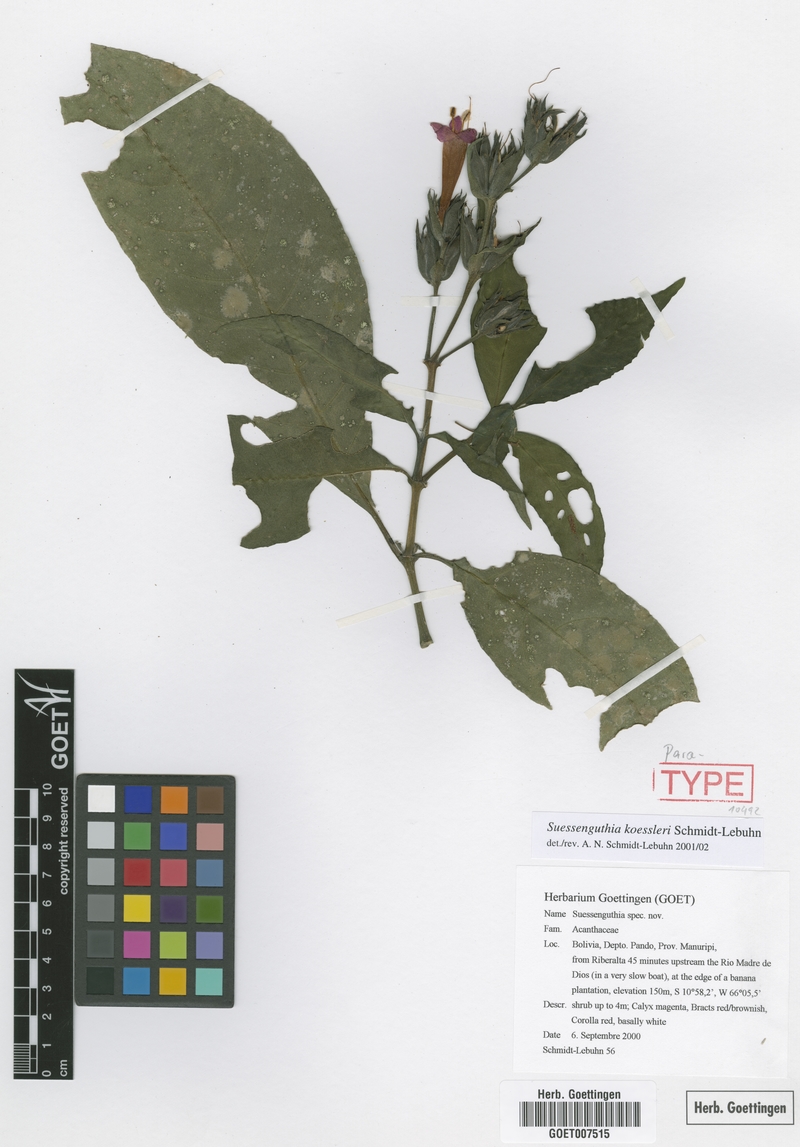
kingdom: Plantae
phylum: Tracheophyta
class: Magnoliopsida
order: Lamiales
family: Acanthaceae
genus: Suessenguthia
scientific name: Suessenguthia koessleri
